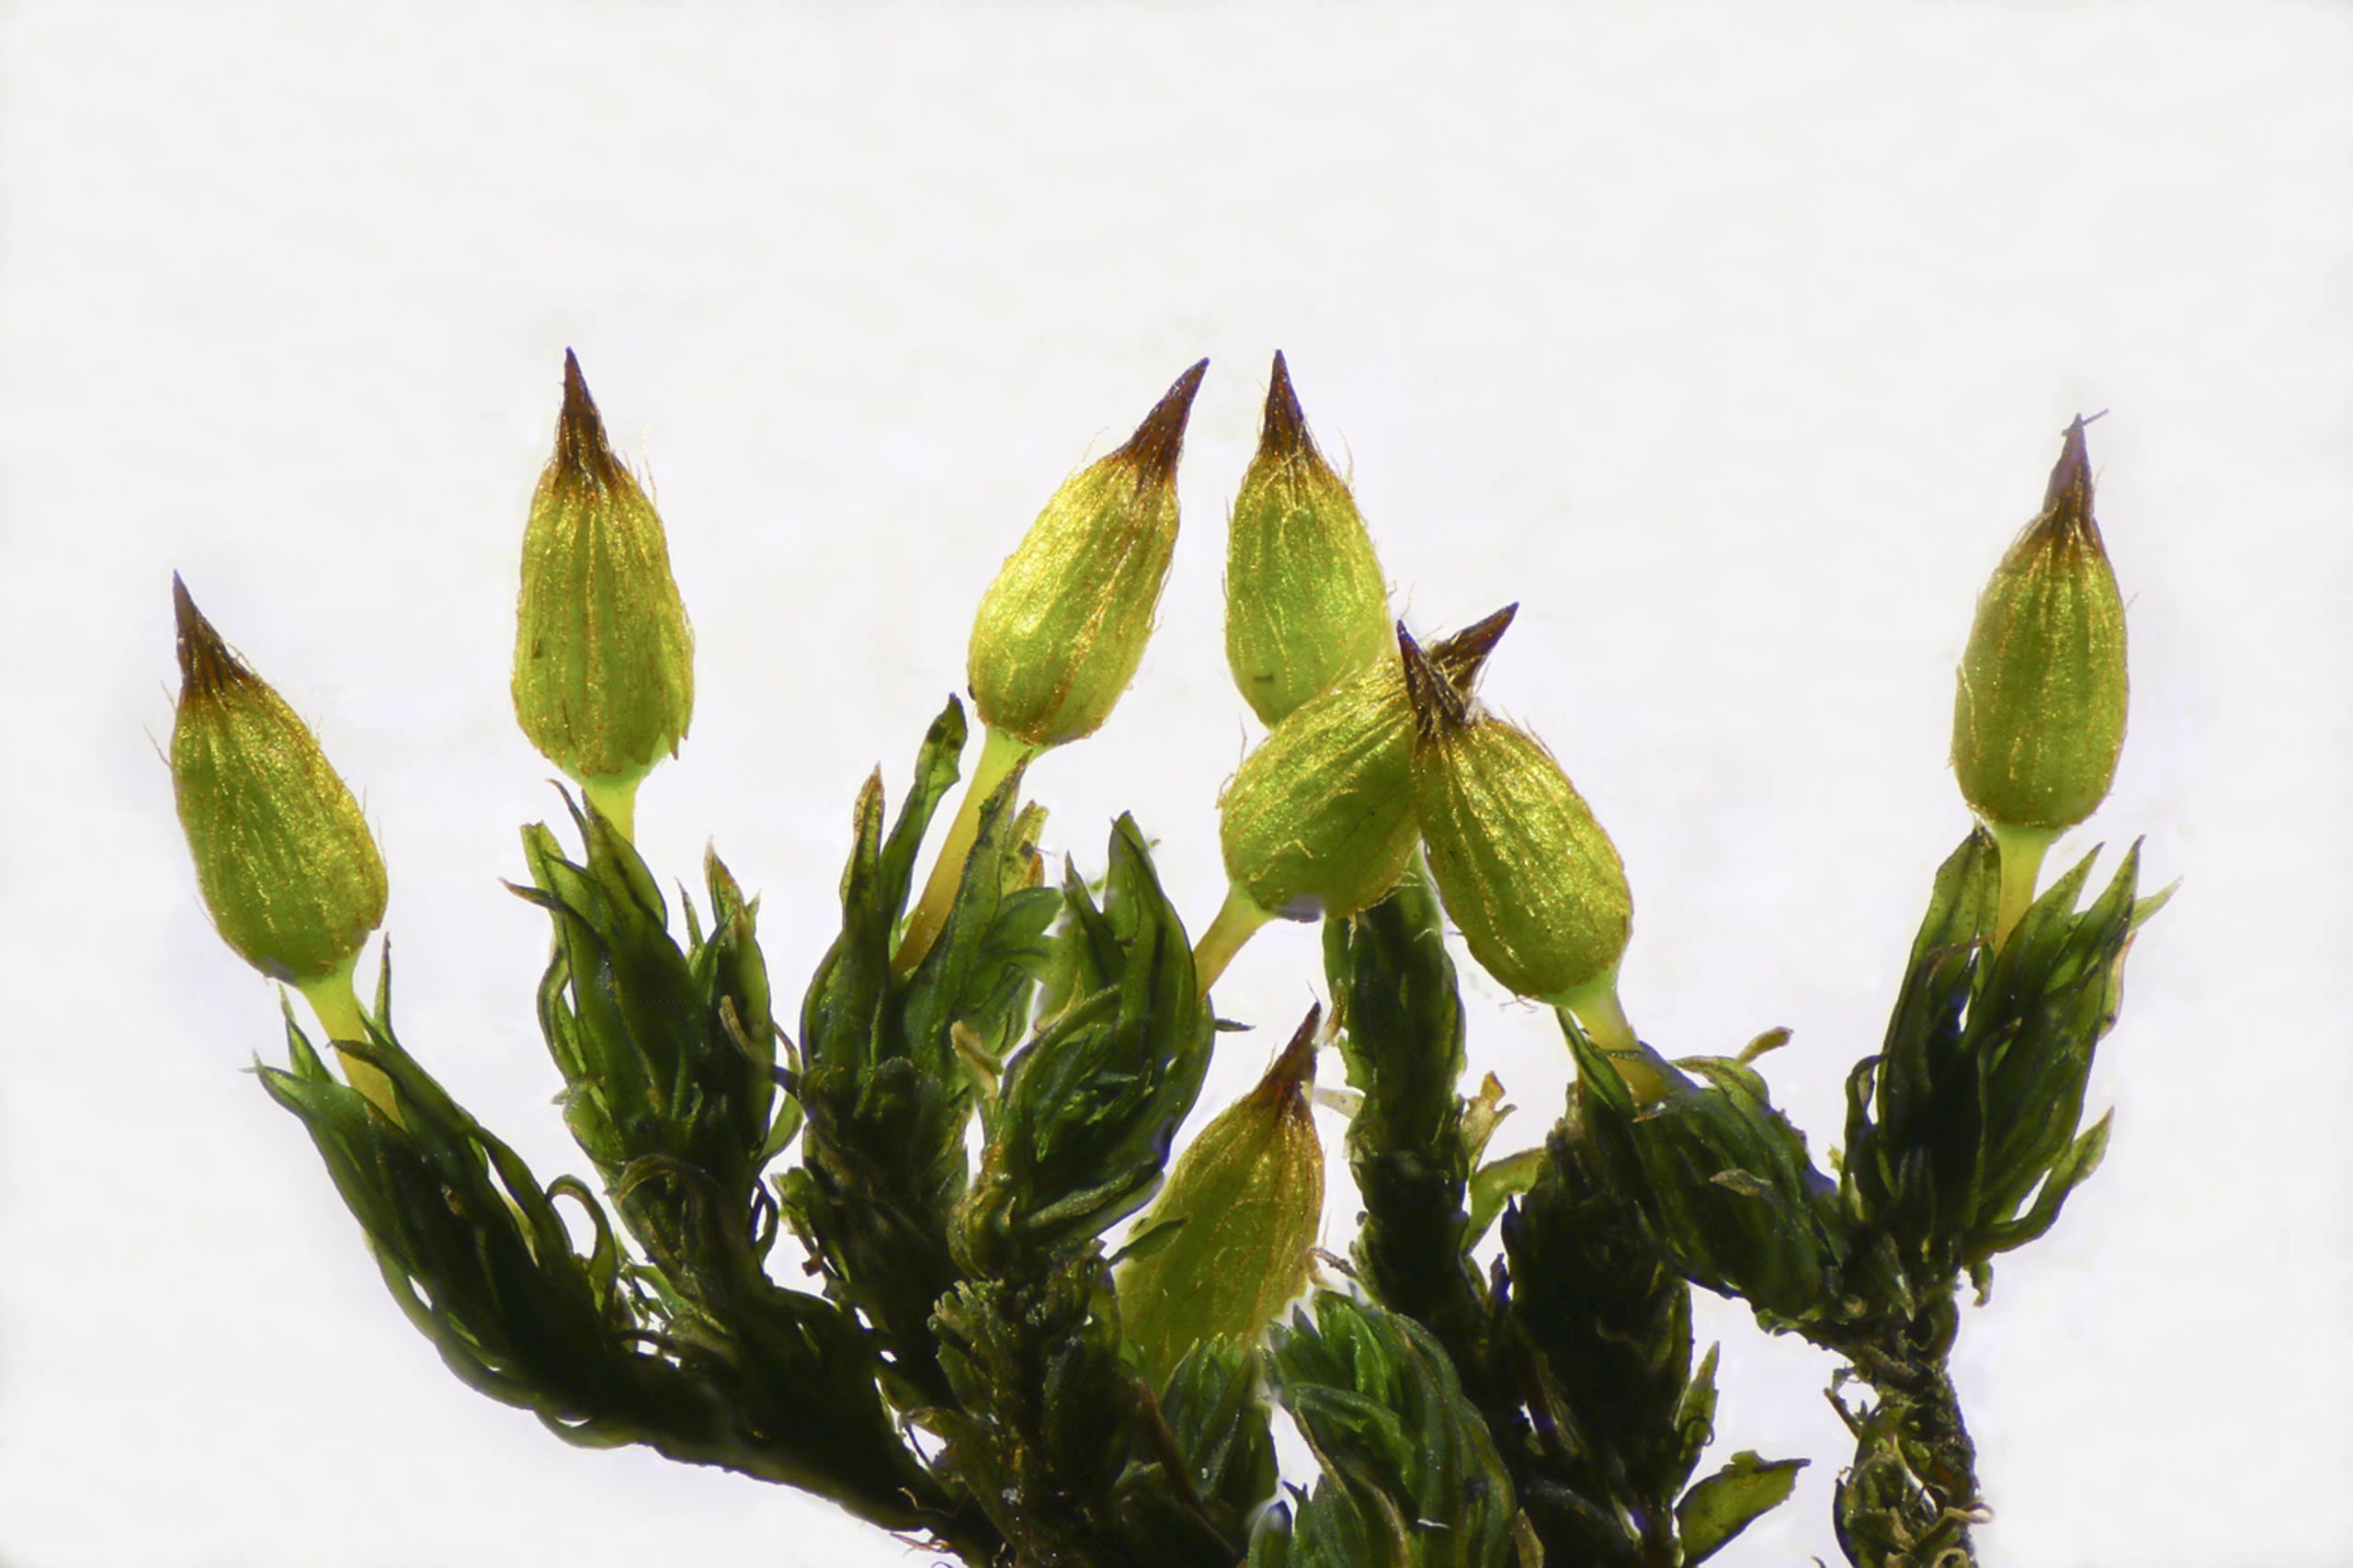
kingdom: Plantae
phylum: Bryophyta
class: Bryopsida
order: Orthotrichales
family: Orthotrichaceae
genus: Orthotrichum
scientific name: Orthotrichum anomalum
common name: Mørk furehætte
